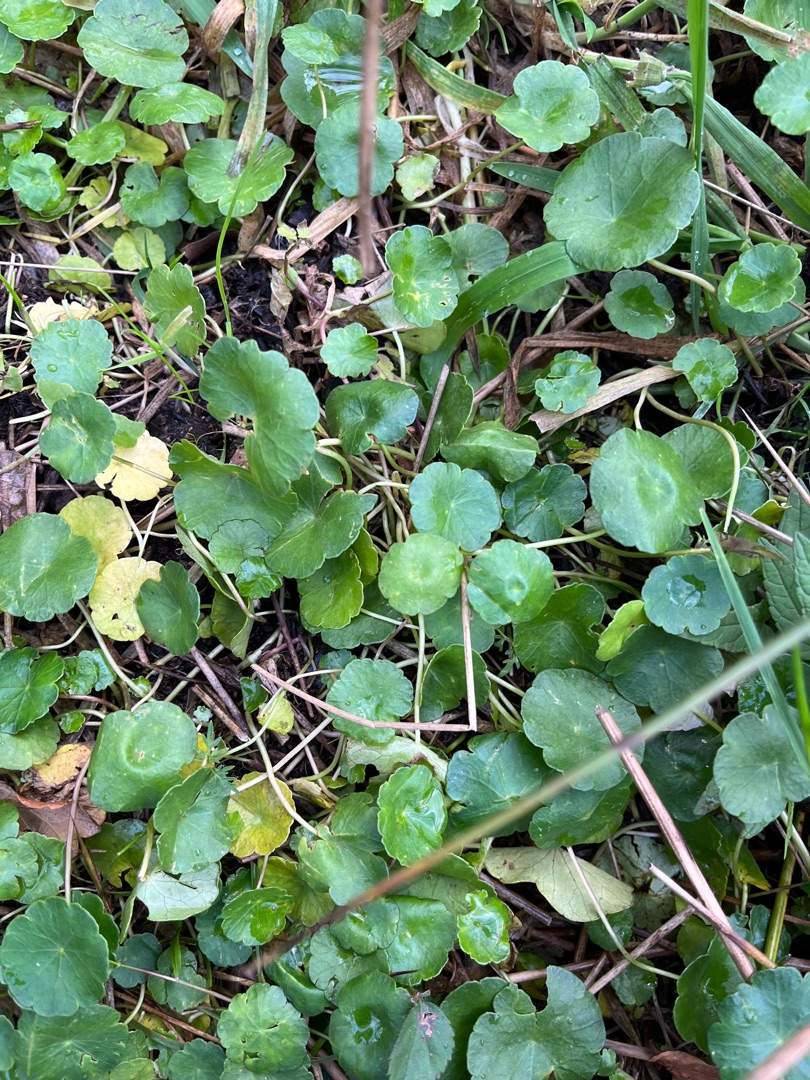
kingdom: Plantae
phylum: Tracheophyta
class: Magnoliopsida
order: Apiales
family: Araliaceae
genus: Hydrocotyle
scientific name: Hydrocotyle vulgaris
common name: Vandnavle
